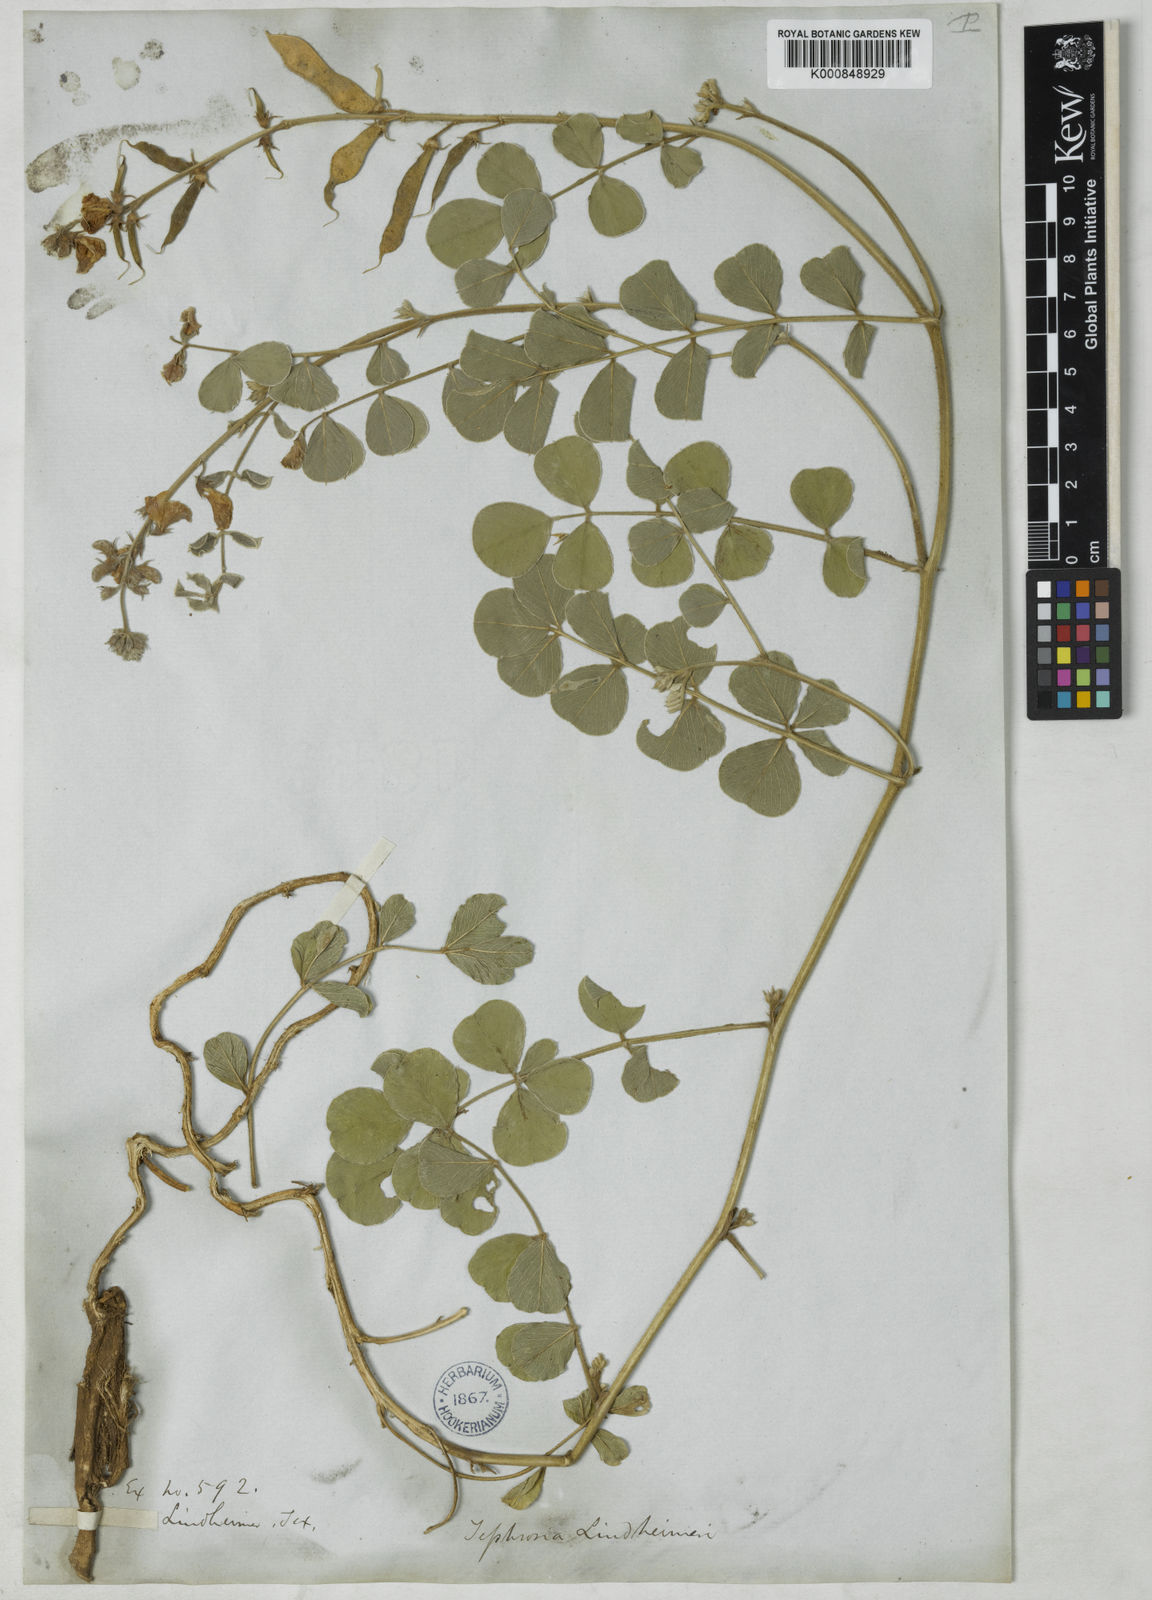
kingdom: Plantae
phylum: Tracheophyta
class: Magnoliopsida
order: Fabales
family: Fabaceae
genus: Tephrosia
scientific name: Tephrosia lindheimeri
